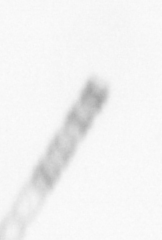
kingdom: Chromista
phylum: Ochrophyta
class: Bacillariophyceae
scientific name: Bacillariophyceae
